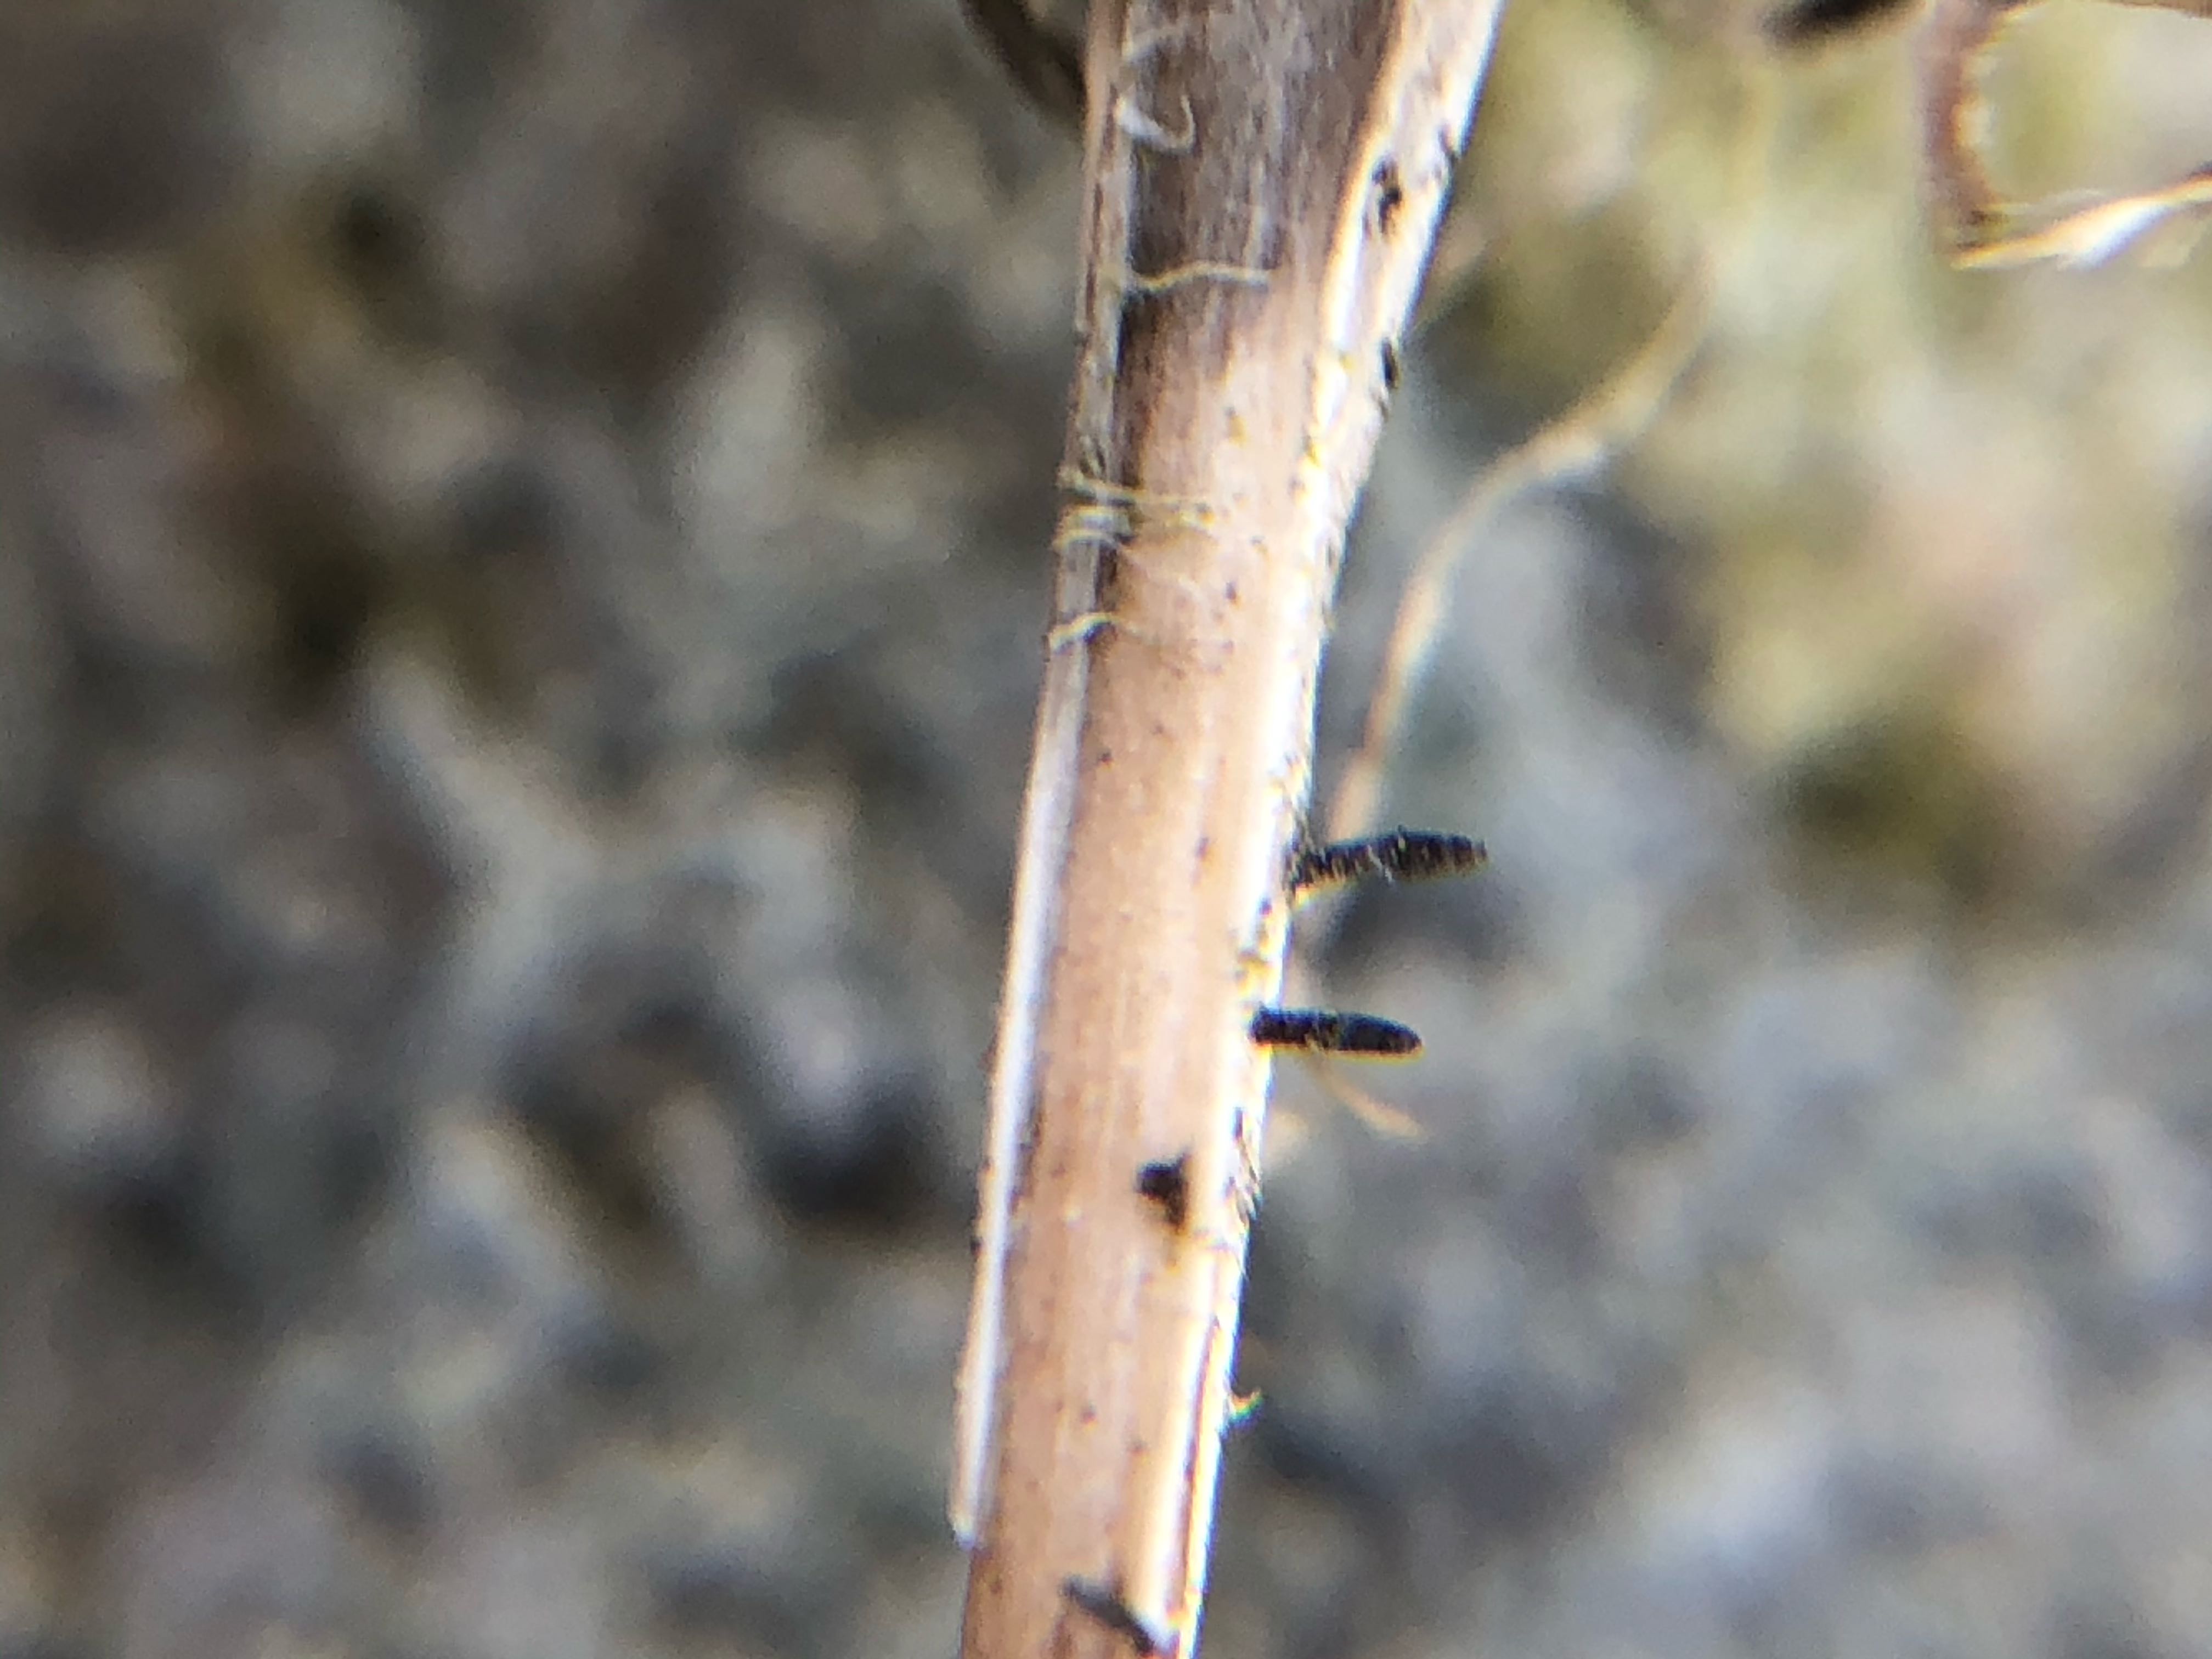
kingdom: Fungi
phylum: Ascomycota
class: Dothideomycetes
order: Acrospermales
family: Acrospermaceae
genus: Acrospermum
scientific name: Acrospermum pallidulum
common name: snerre-stængeltunge
